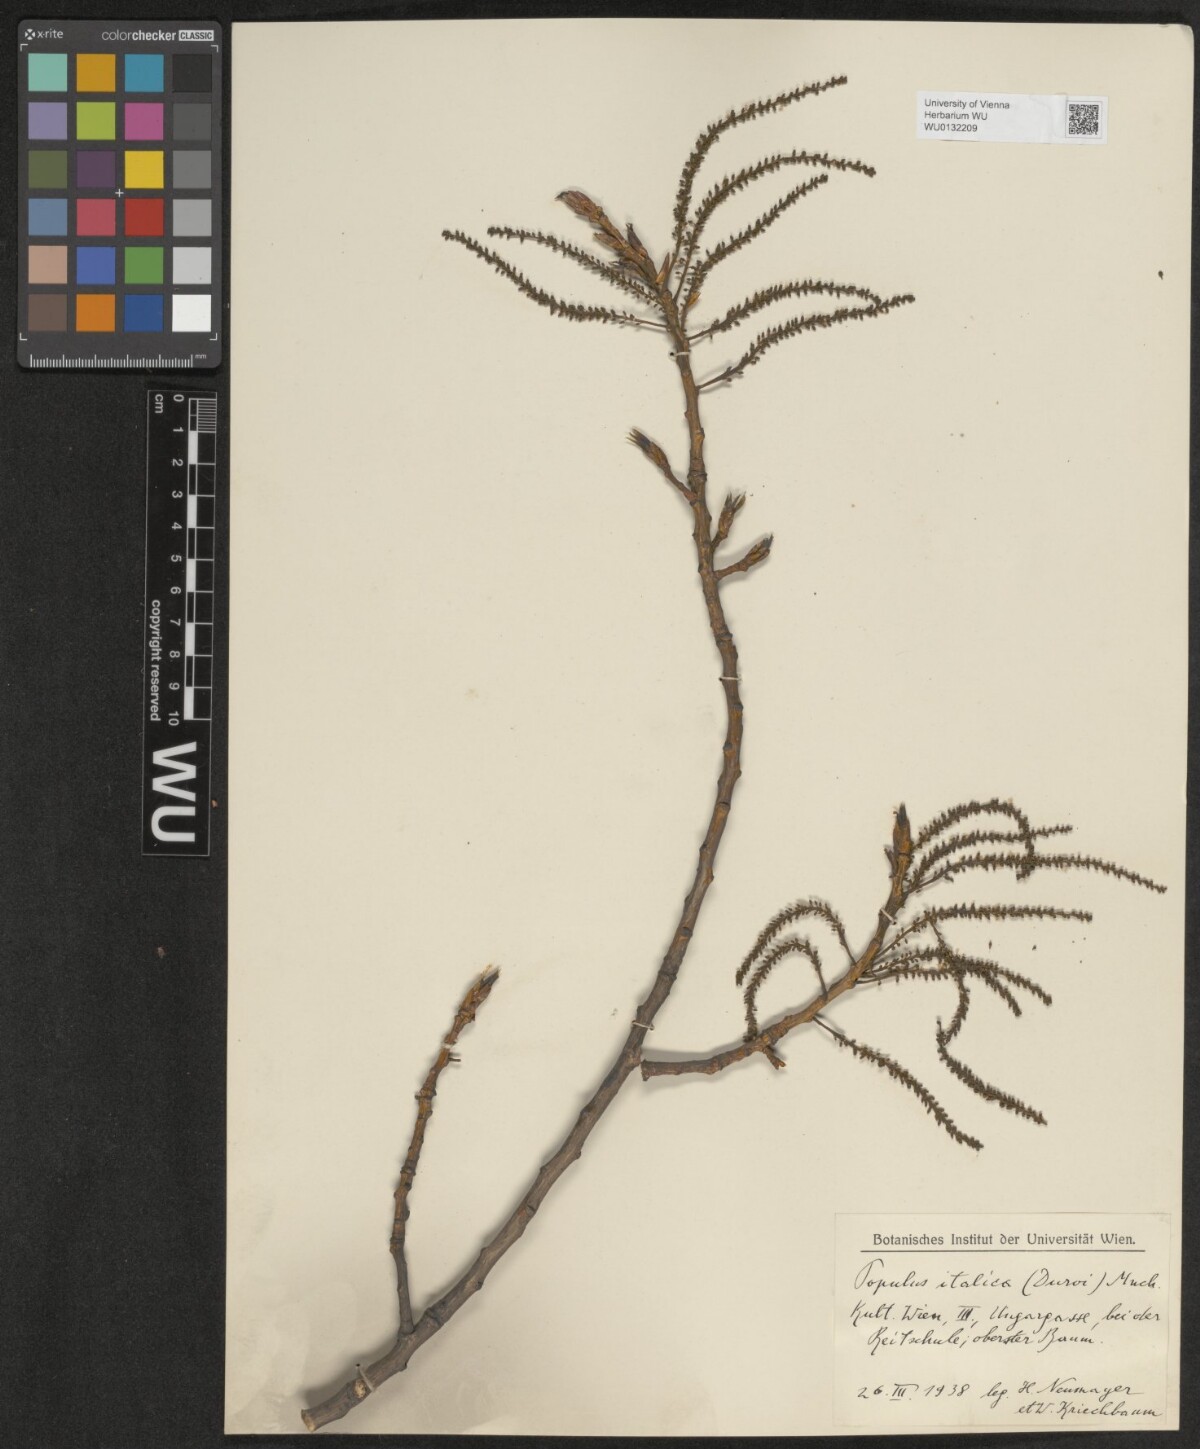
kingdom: Plantae
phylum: Tracheophyta
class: Magnoliopsida
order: Malpighiales
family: Salicaceae
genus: Populus
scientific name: Populus nigra
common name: Black poplar
